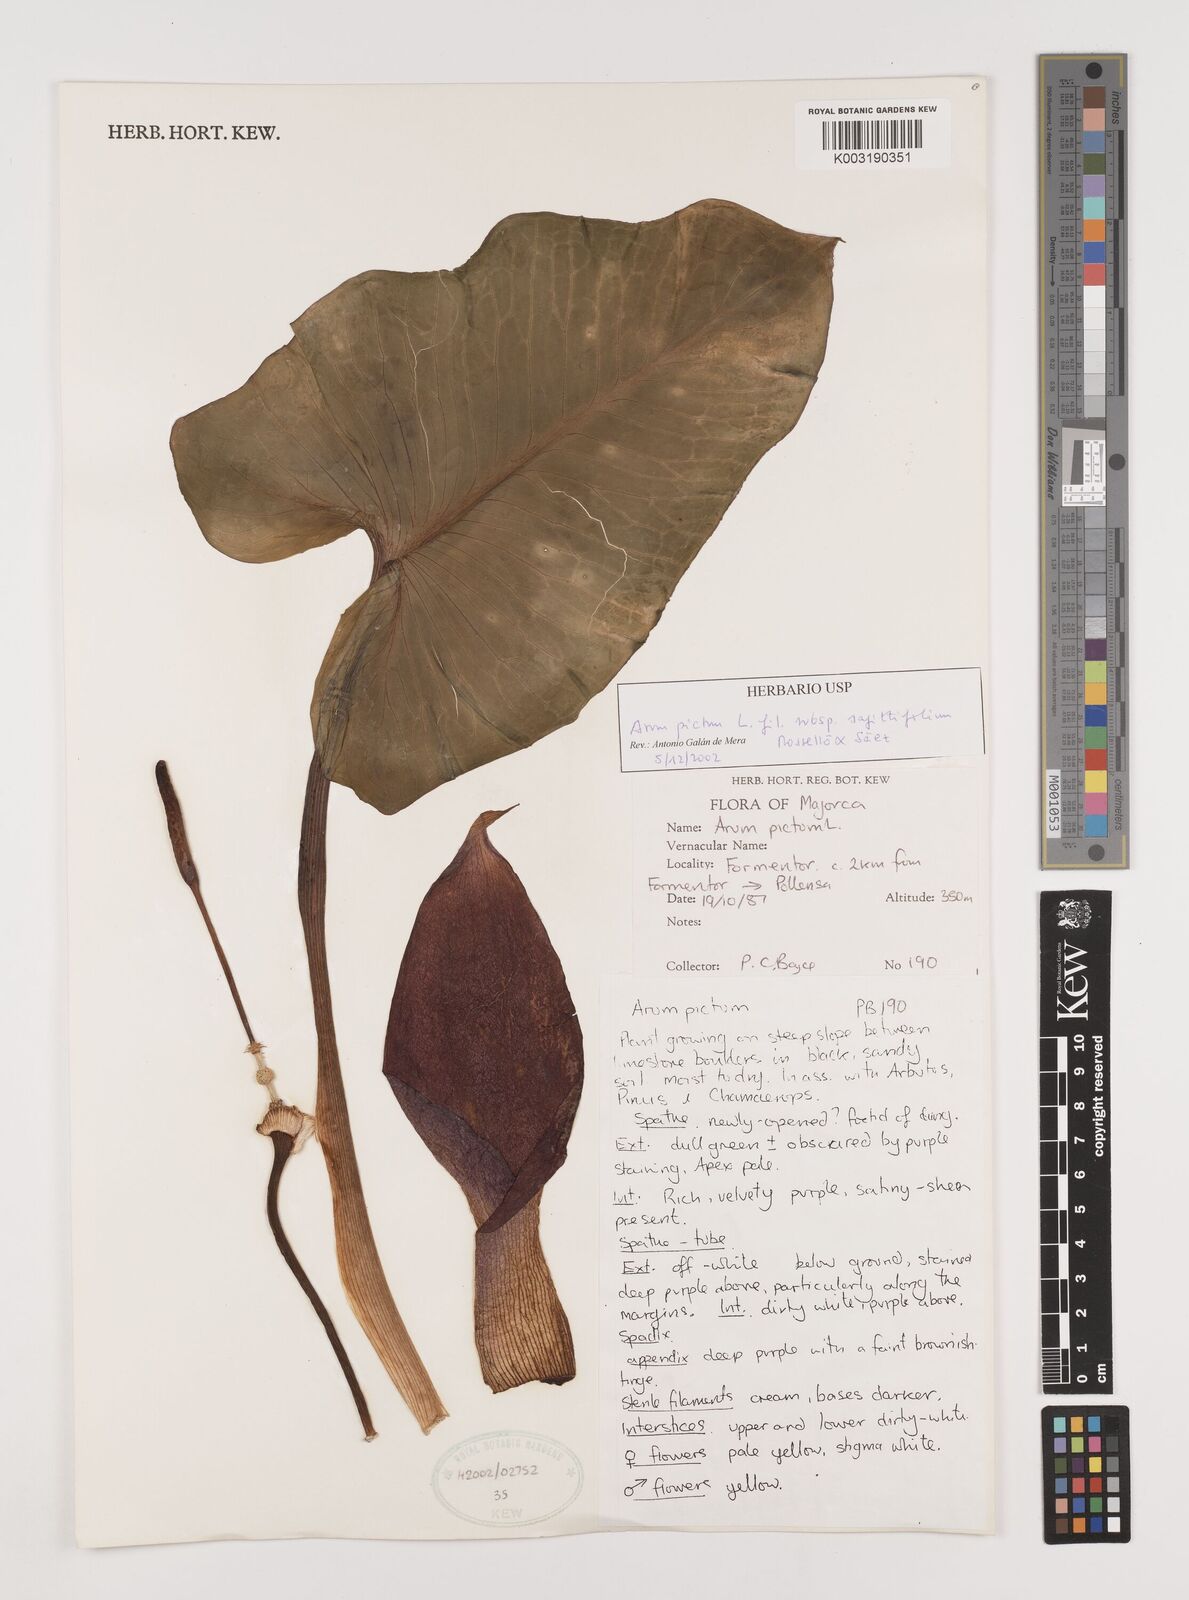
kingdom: Plantae
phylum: Tracheophyta
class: Liliopsida
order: Alismatales
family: Araceae
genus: Arum
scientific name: Arum
